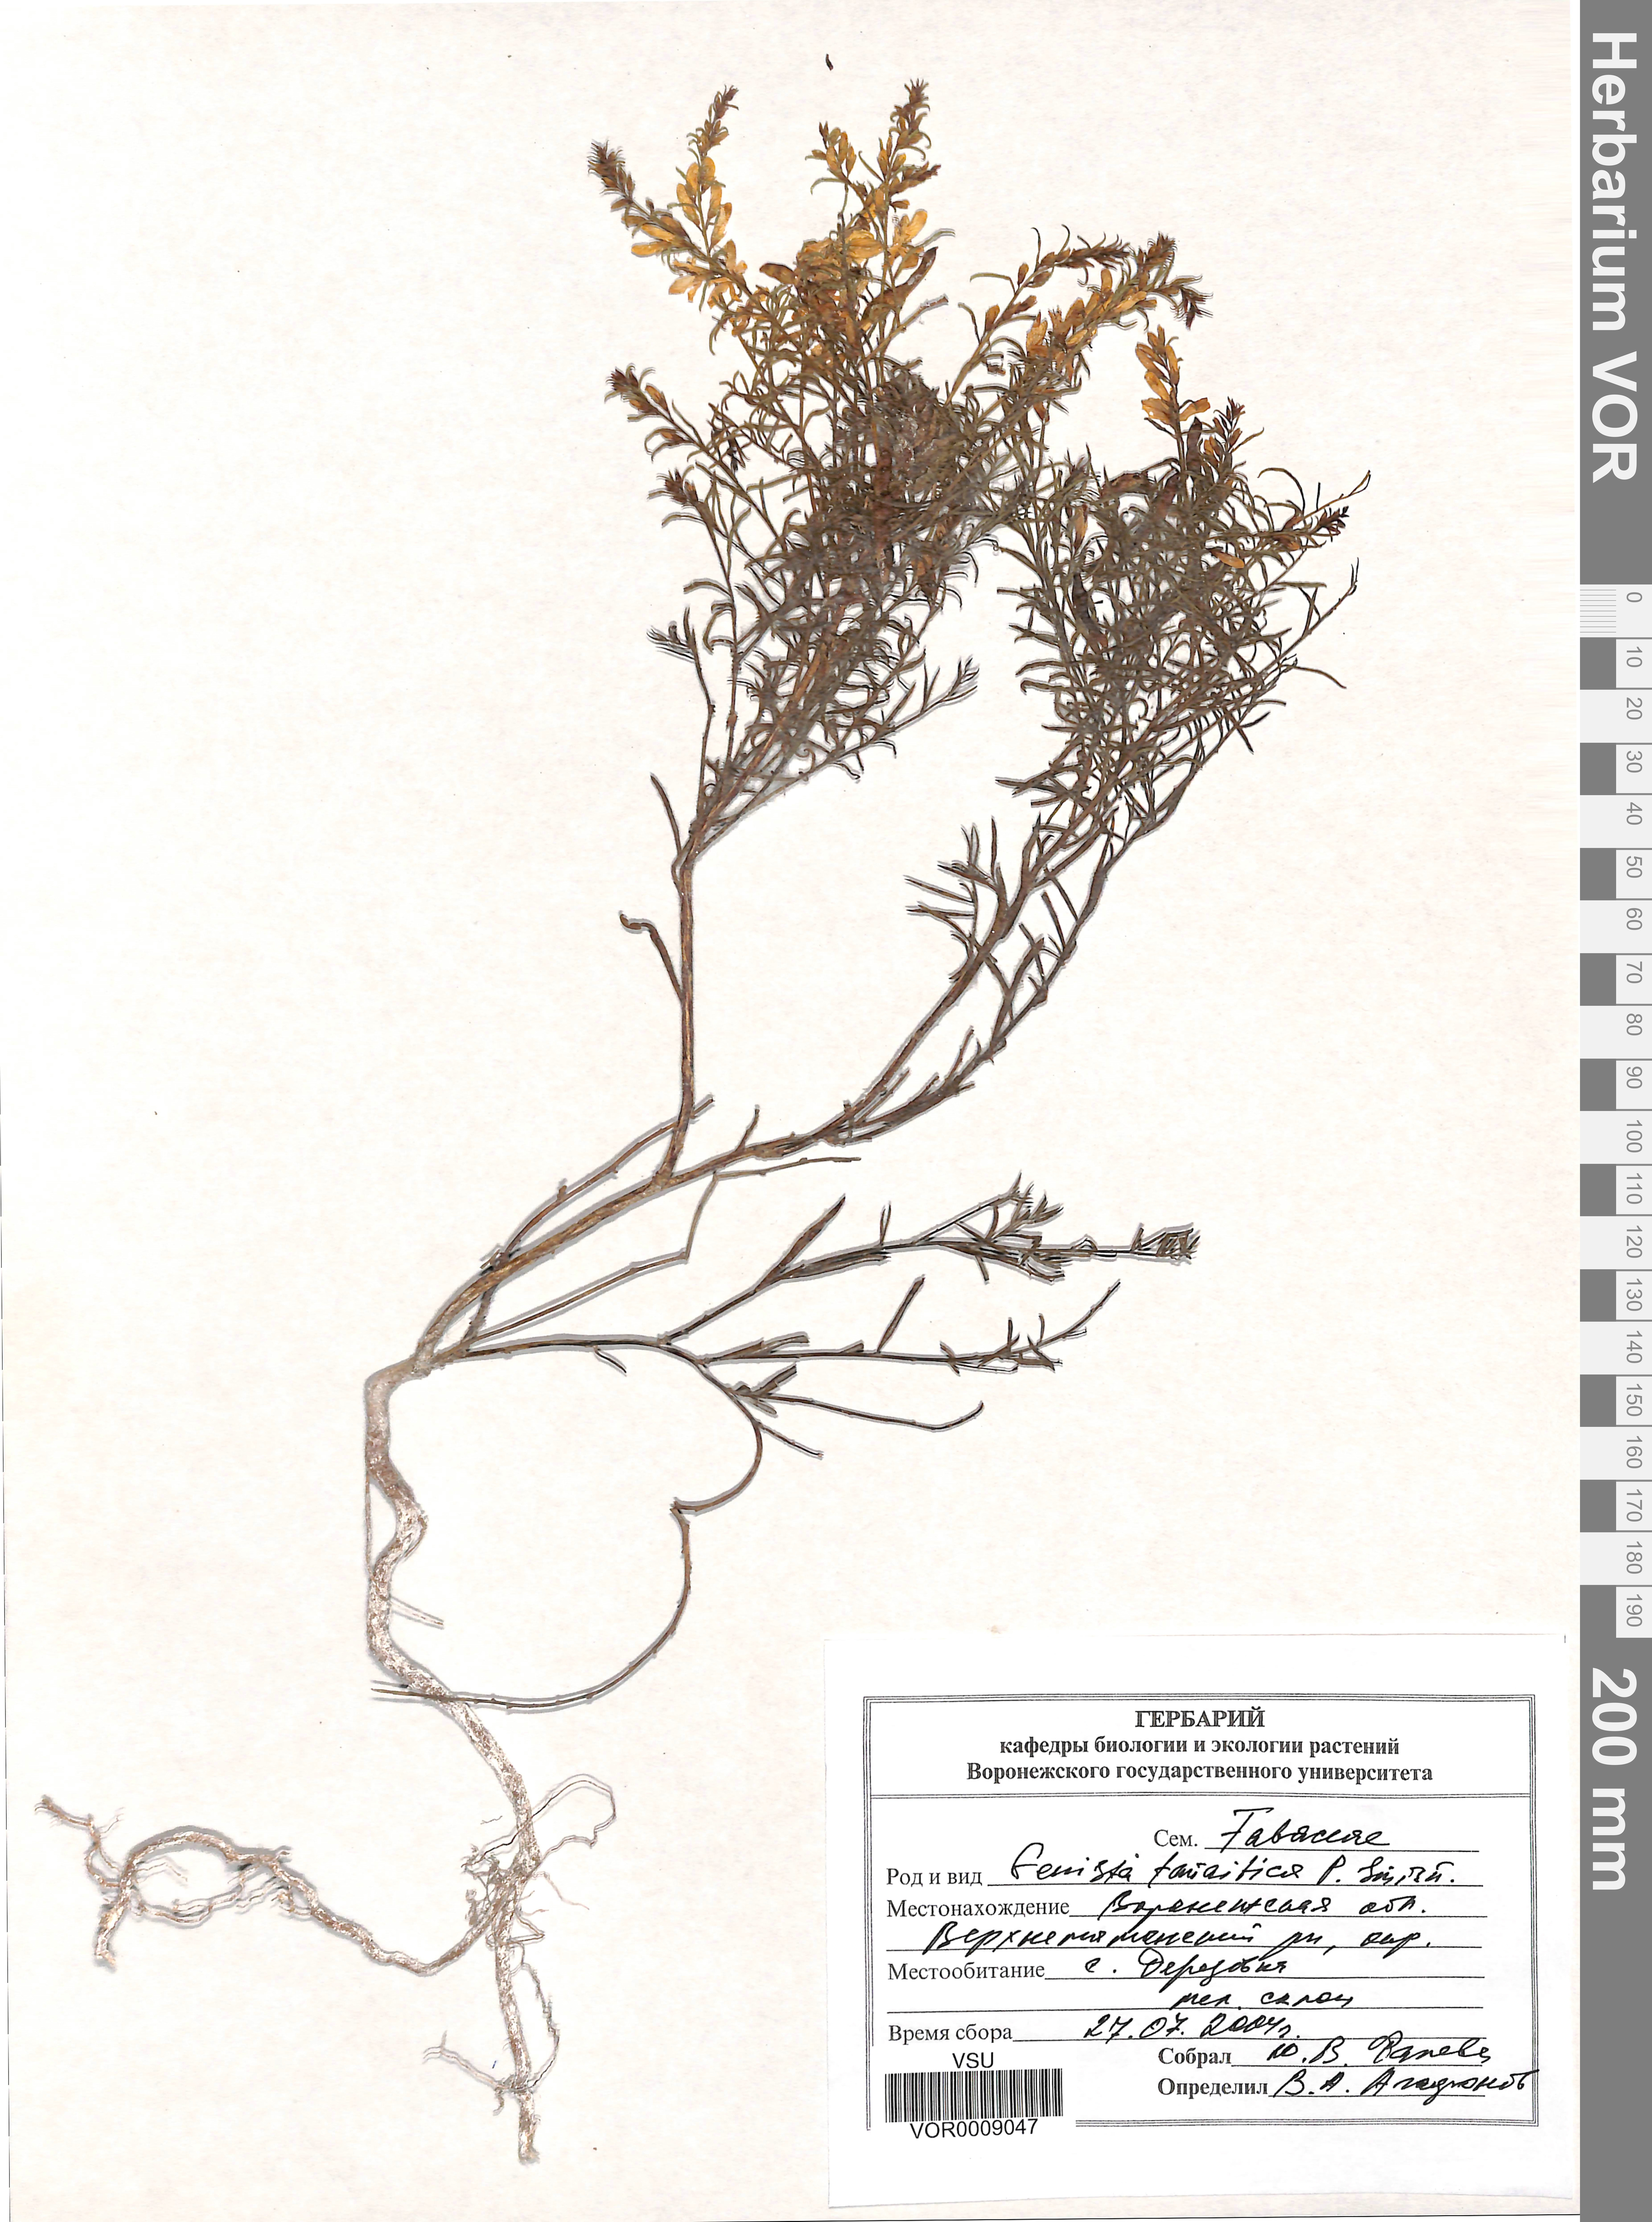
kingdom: Plantae
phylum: Tracheophyta
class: Magnoliopsida
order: Fabales
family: Fabaceae
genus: Genista
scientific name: Genista tinctoria
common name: Dyer's greenweed
